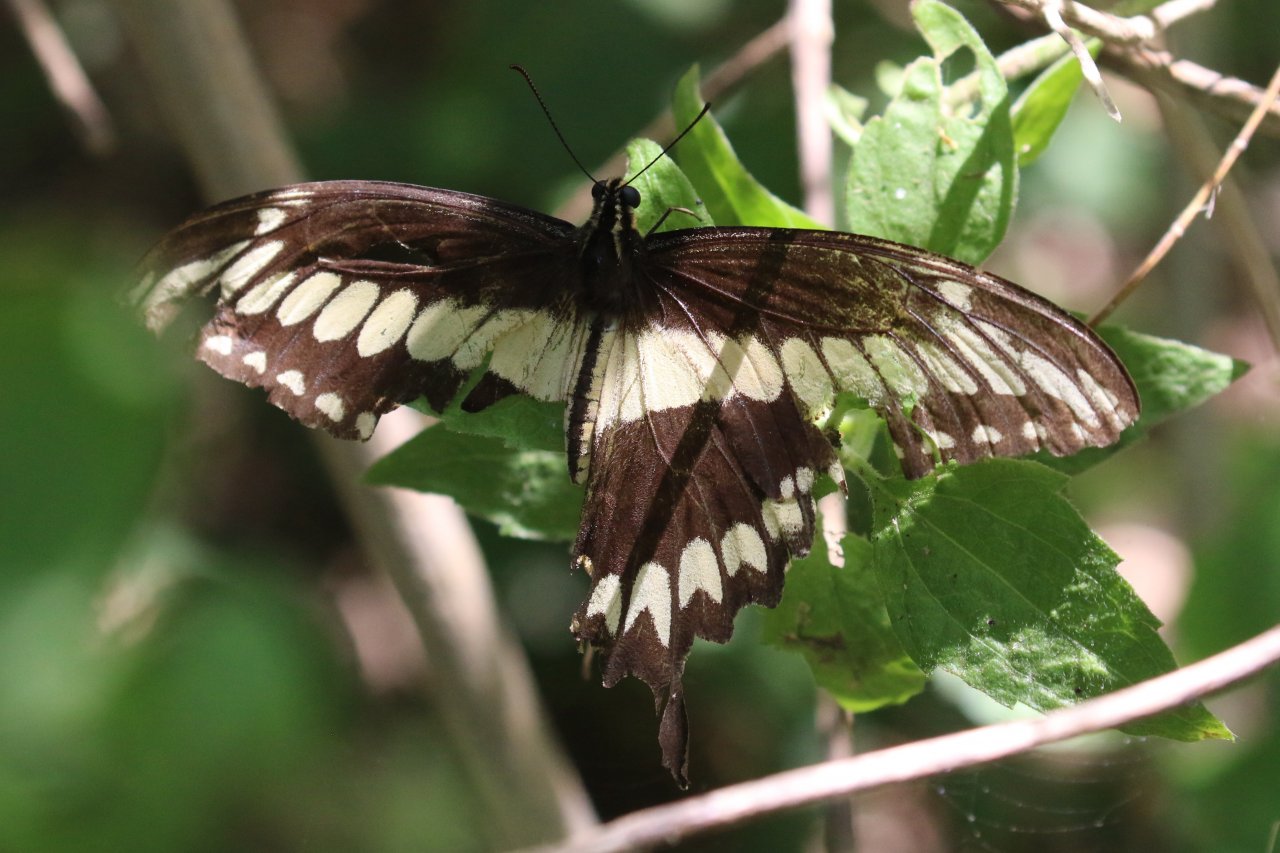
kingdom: Animalia
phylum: Arthropoda
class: Insecta
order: Lepidoptera
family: Papilionidae
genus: Papilio
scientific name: Papilio ornythion
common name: Ornythion Swallowtail
